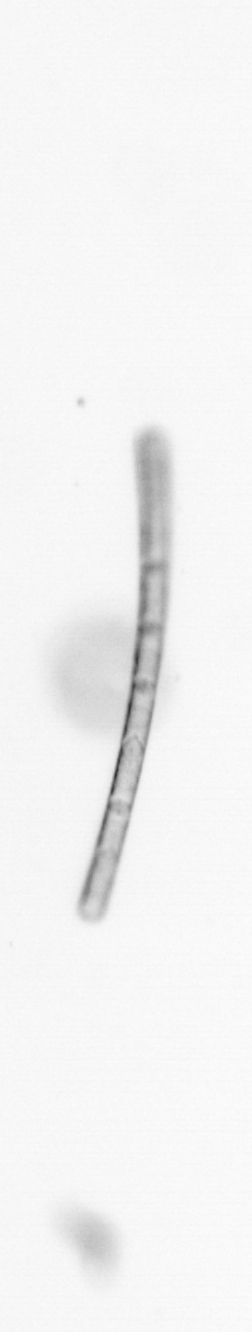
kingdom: Chromista
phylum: Ochrophyta
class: Bacillariophyceae
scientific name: Bacillariophyceae
